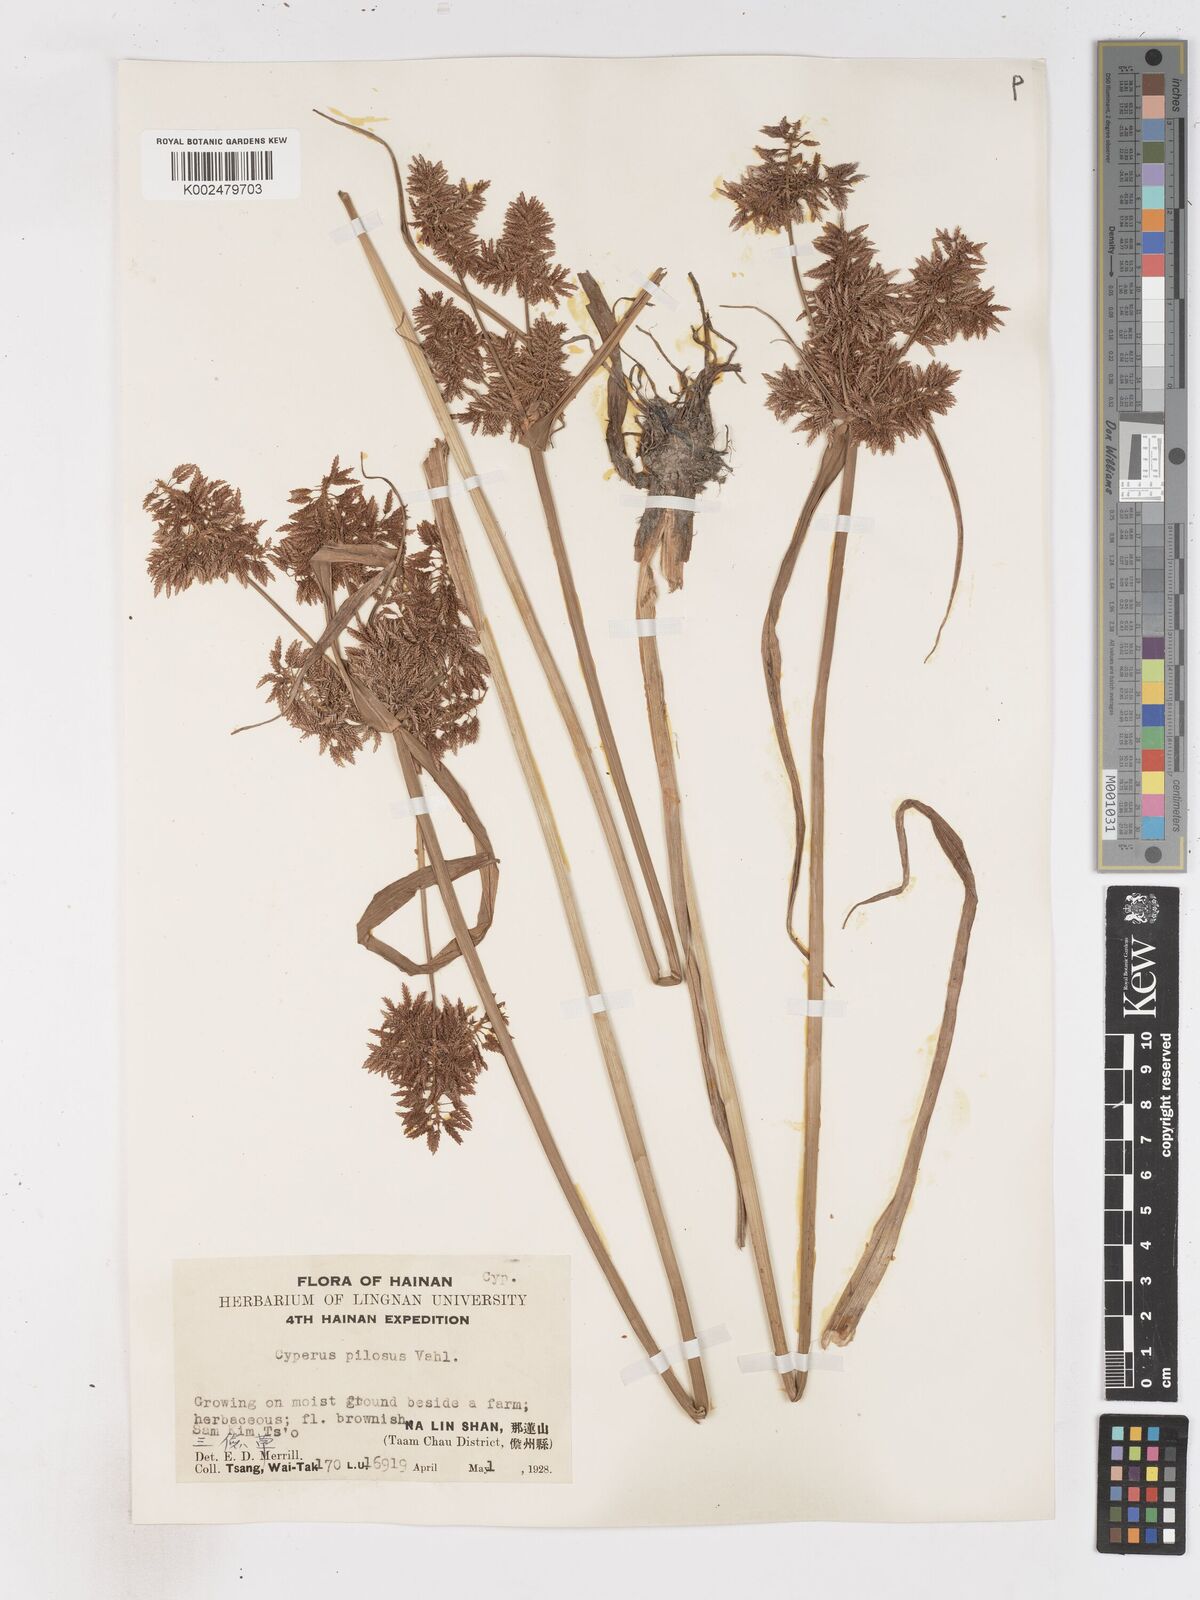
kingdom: Plantae
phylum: Tracheophyta
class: Liliopsida
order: Poales
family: Cyperaceae
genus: Cyperus
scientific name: Cyperus pilosus
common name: Fuzzy flatsedge
